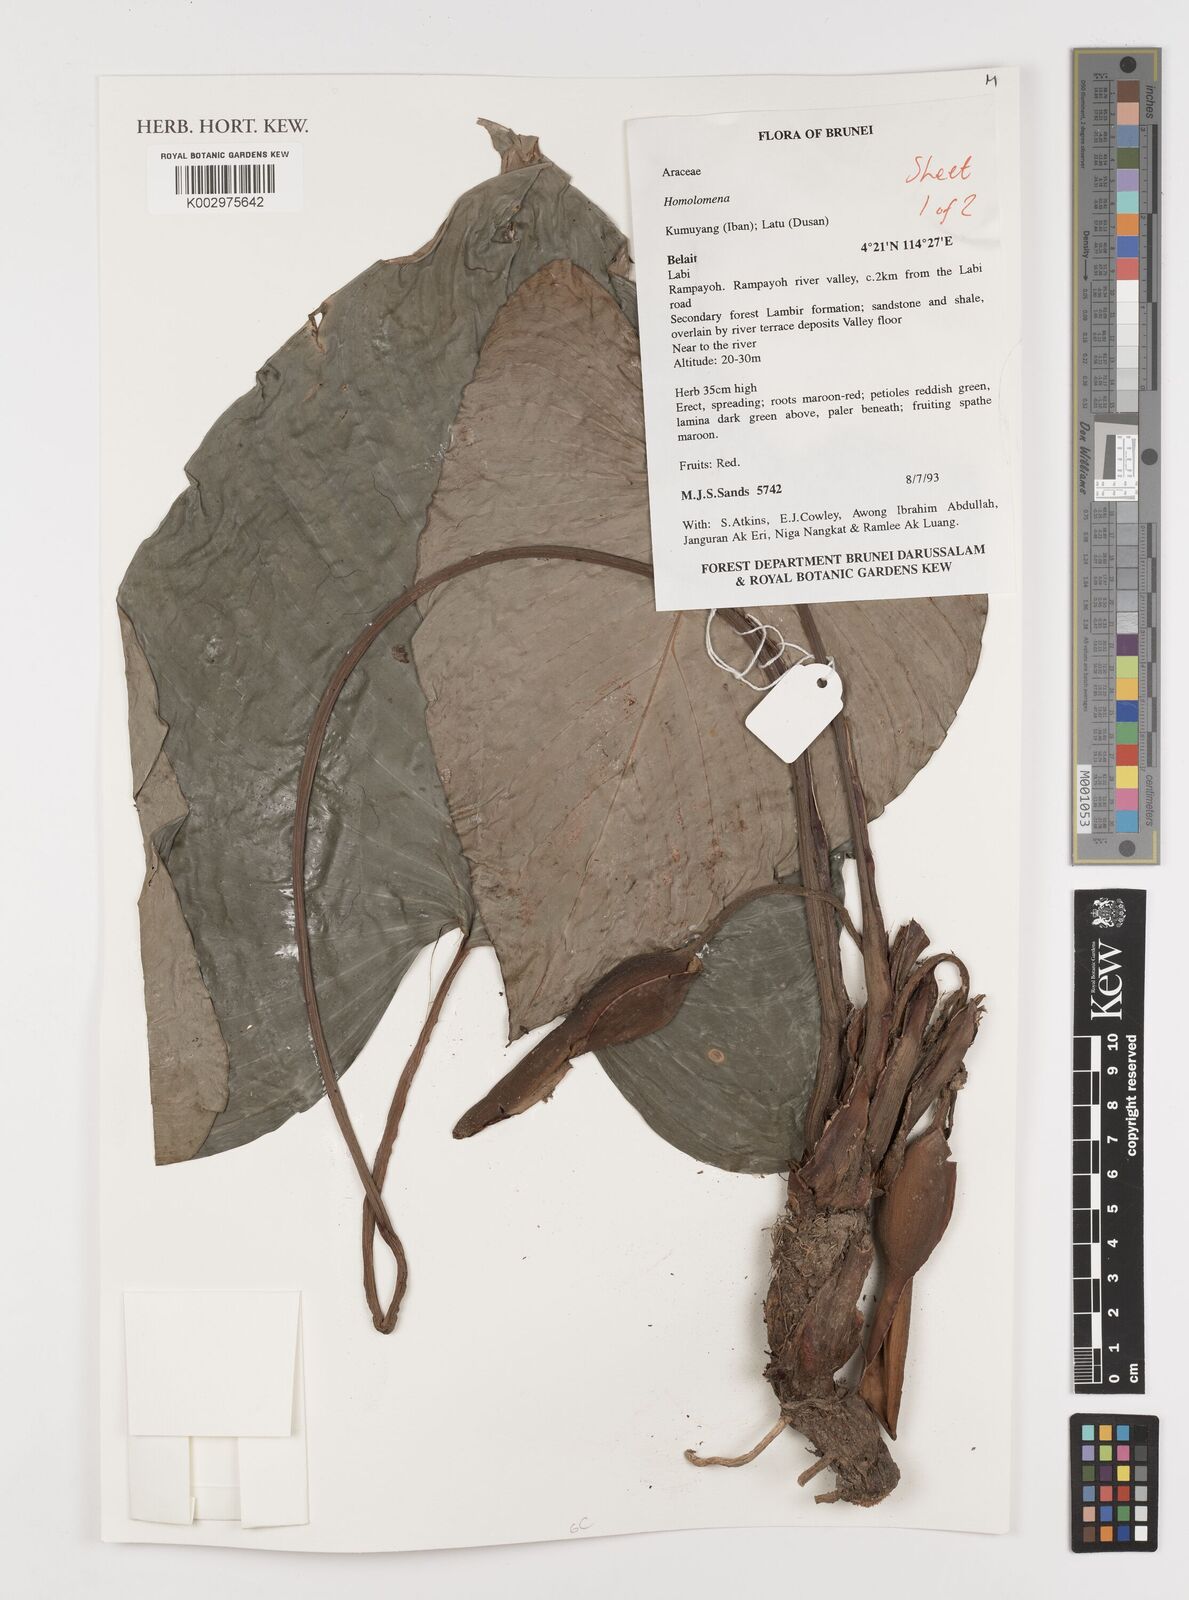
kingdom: Plantae
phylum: Tracheophyta
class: Liliopsida
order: Alismatales
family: Araceae
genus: Homalomena
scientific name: Homalomena
